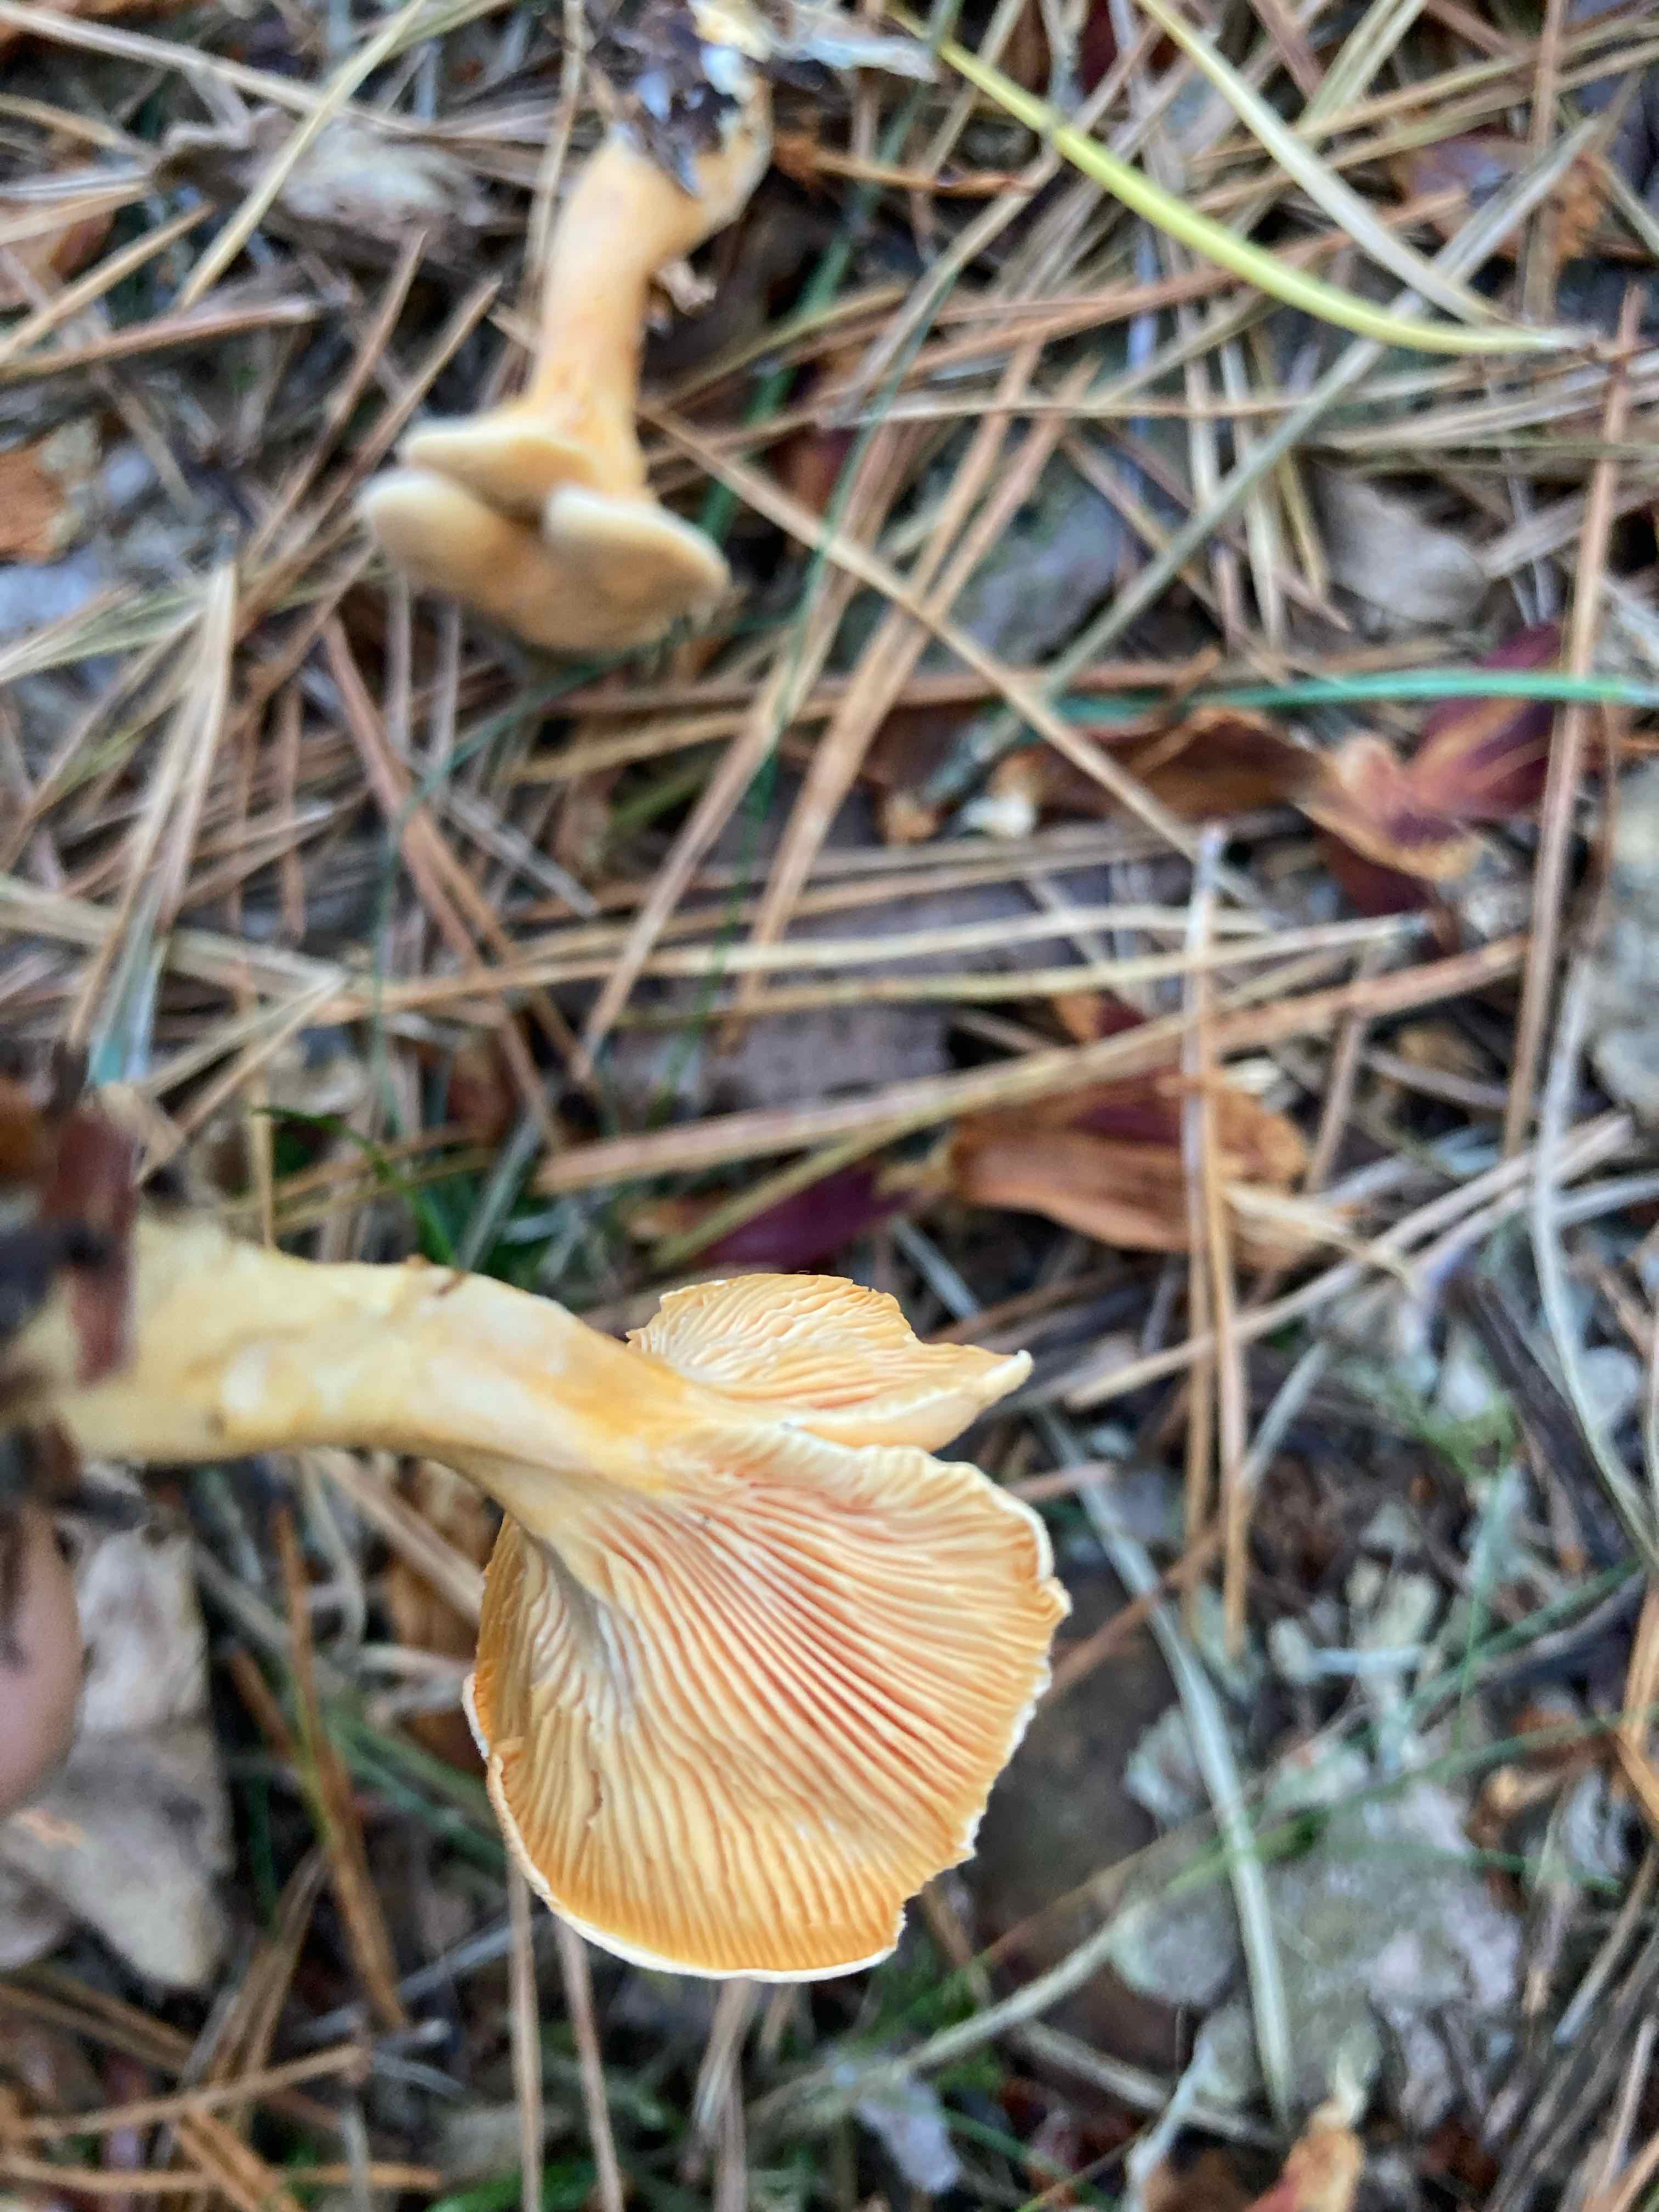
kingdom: Fungi
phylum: Basidiomycota
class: Agaricomycetes
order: Boletales
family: Hygrophoropsidaceae
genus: Hygrophoropsis
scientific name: Hygrophoropsis aurantiaca
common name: almindelig orangekantarel
